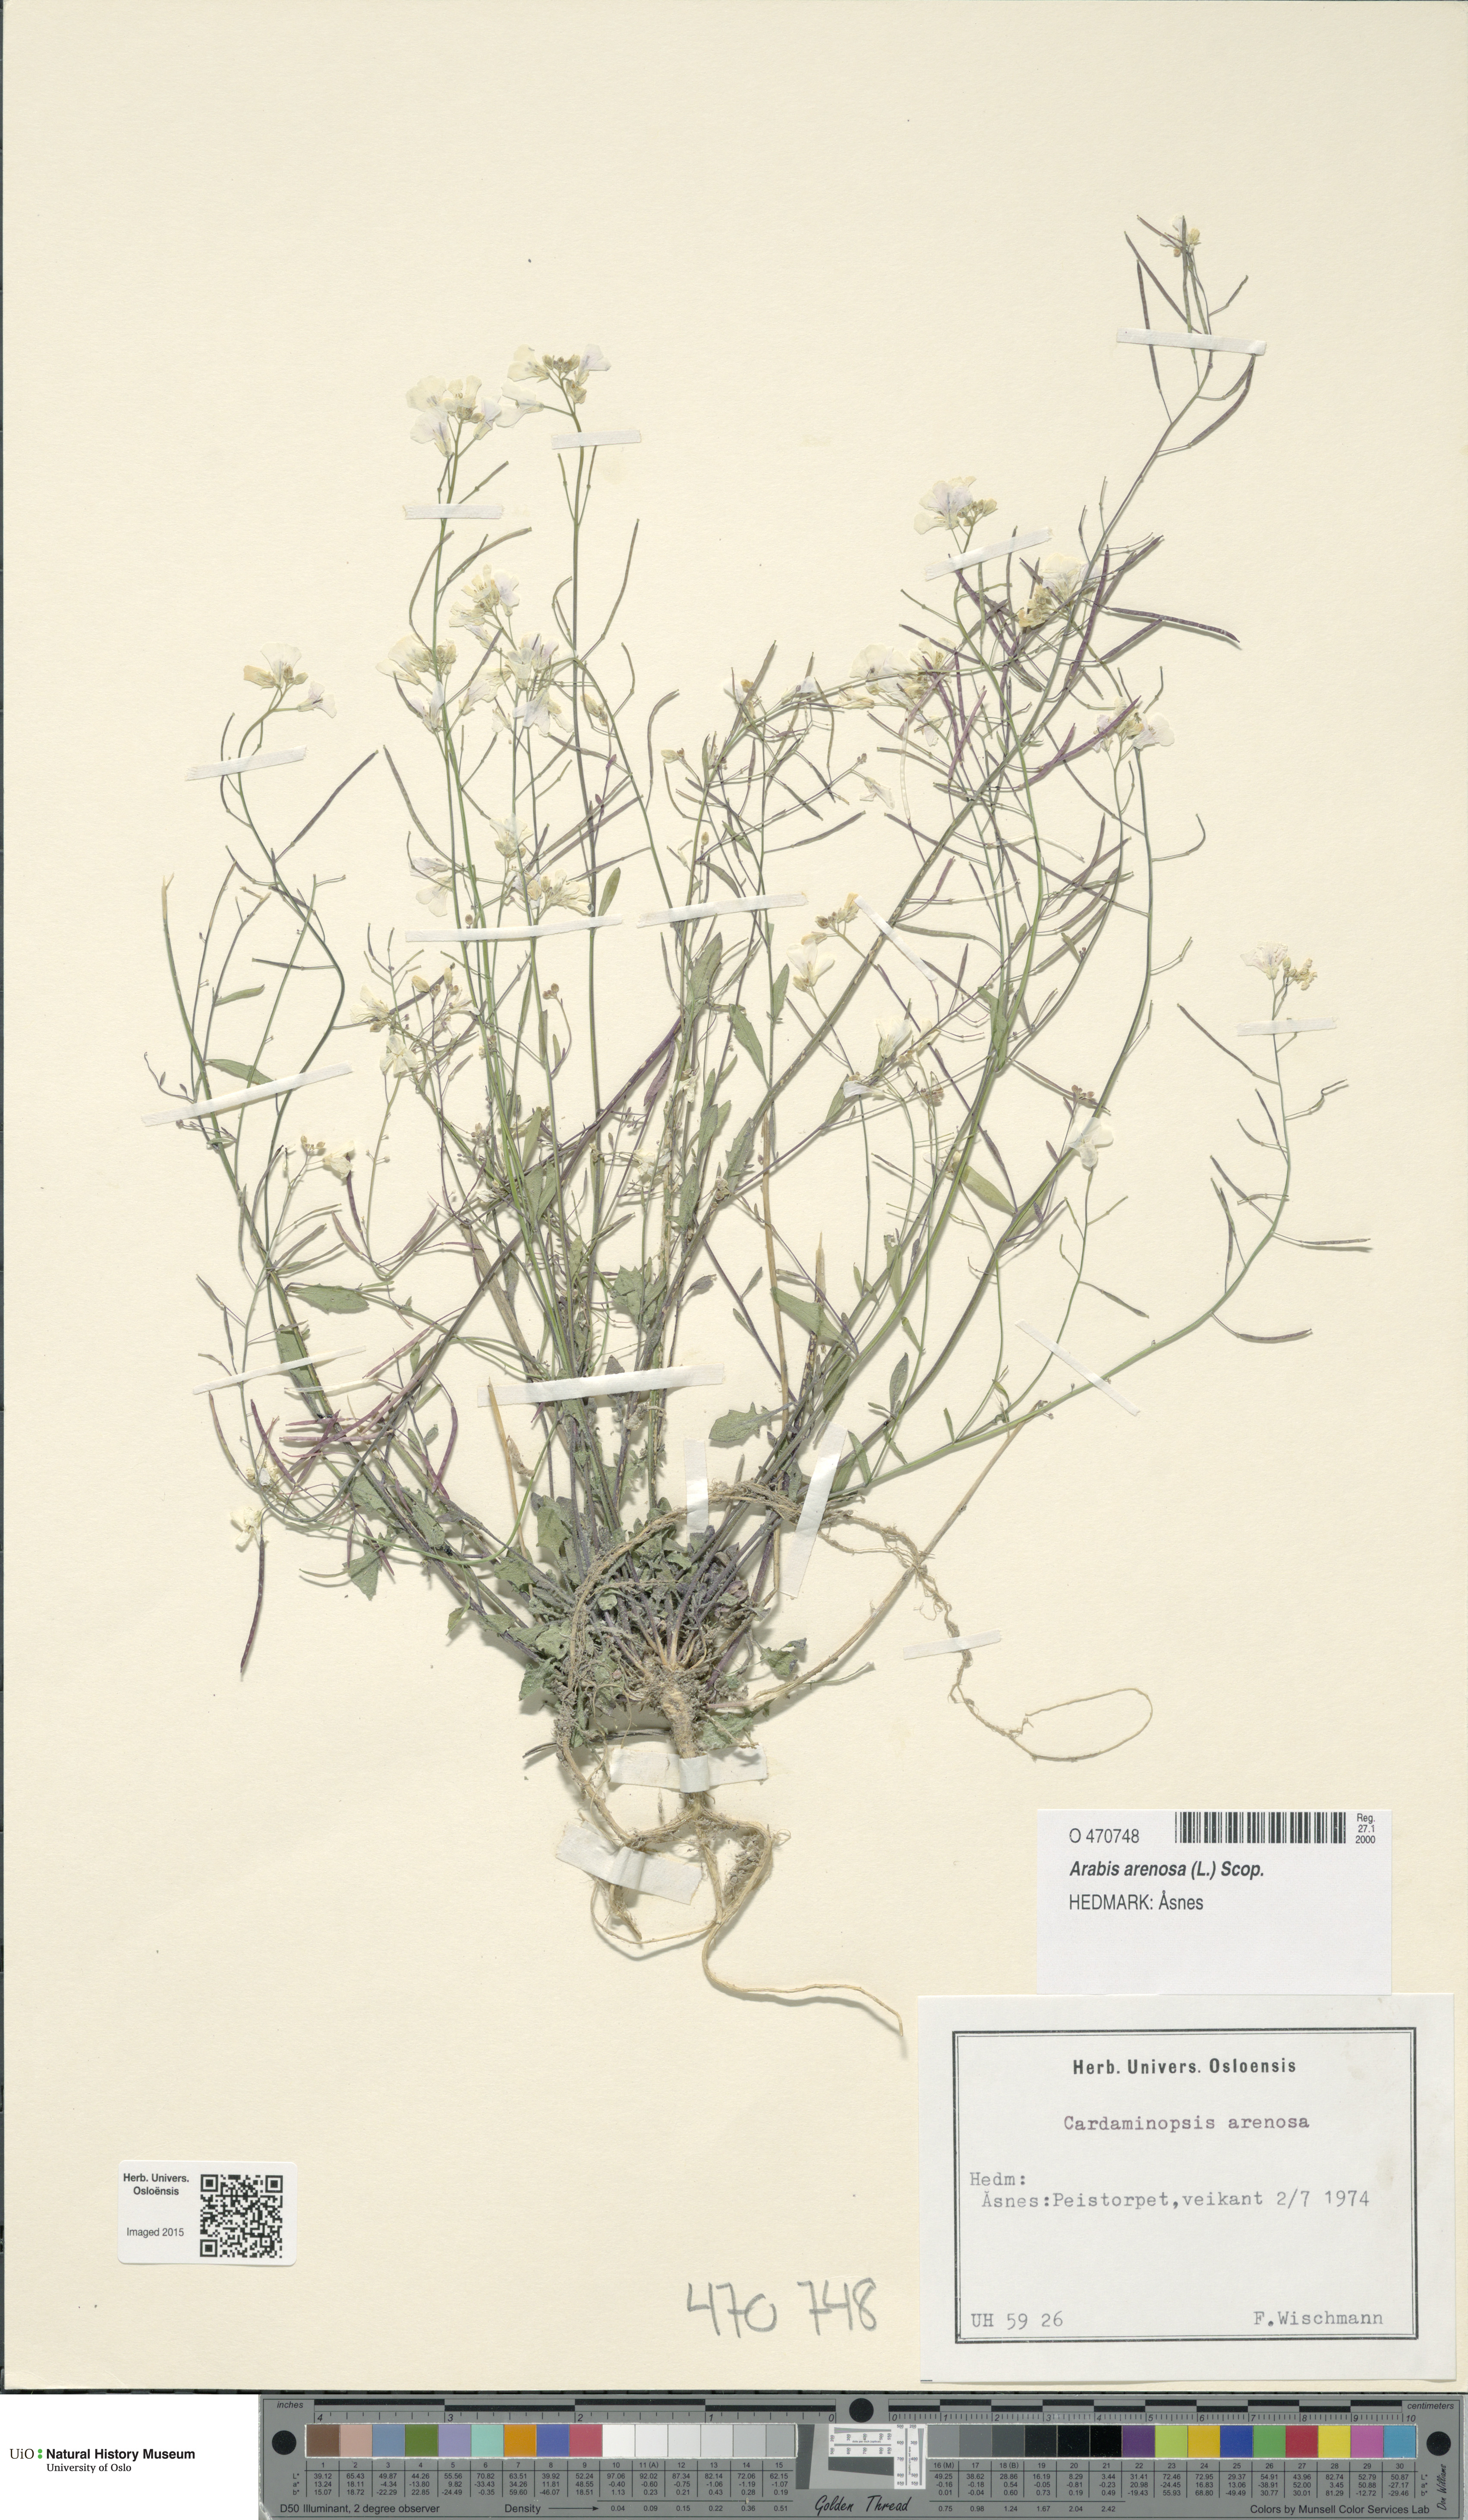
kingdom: Plantae
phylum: Tracheophyta
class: Magnoliopsida
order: Brassicales
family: Brassicaceae
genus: Arabidopsis
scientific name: Arabidopsis arenosa
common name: Sand rock-cress
